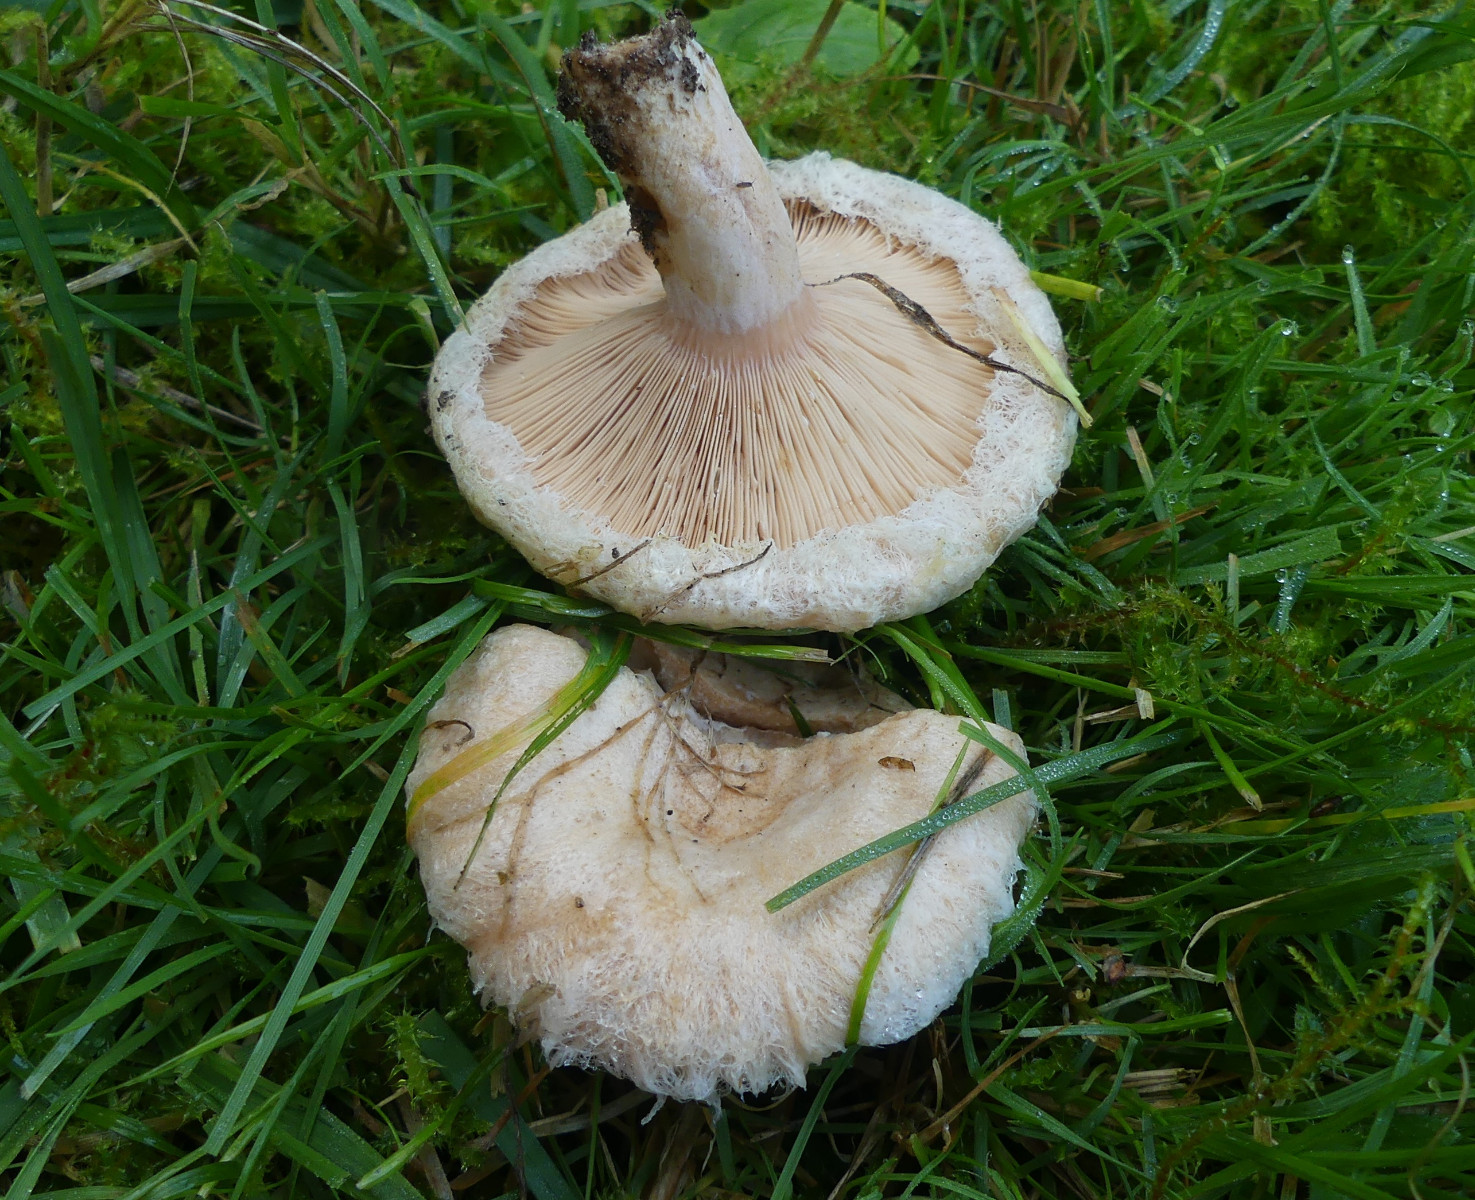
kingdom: Fungi
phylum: Basidiomycota
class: Agaricomycetes
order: Russulales
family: Russulaceae
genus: Lactarius
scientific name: Lactarius pubescens
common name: dunet mælkehat
